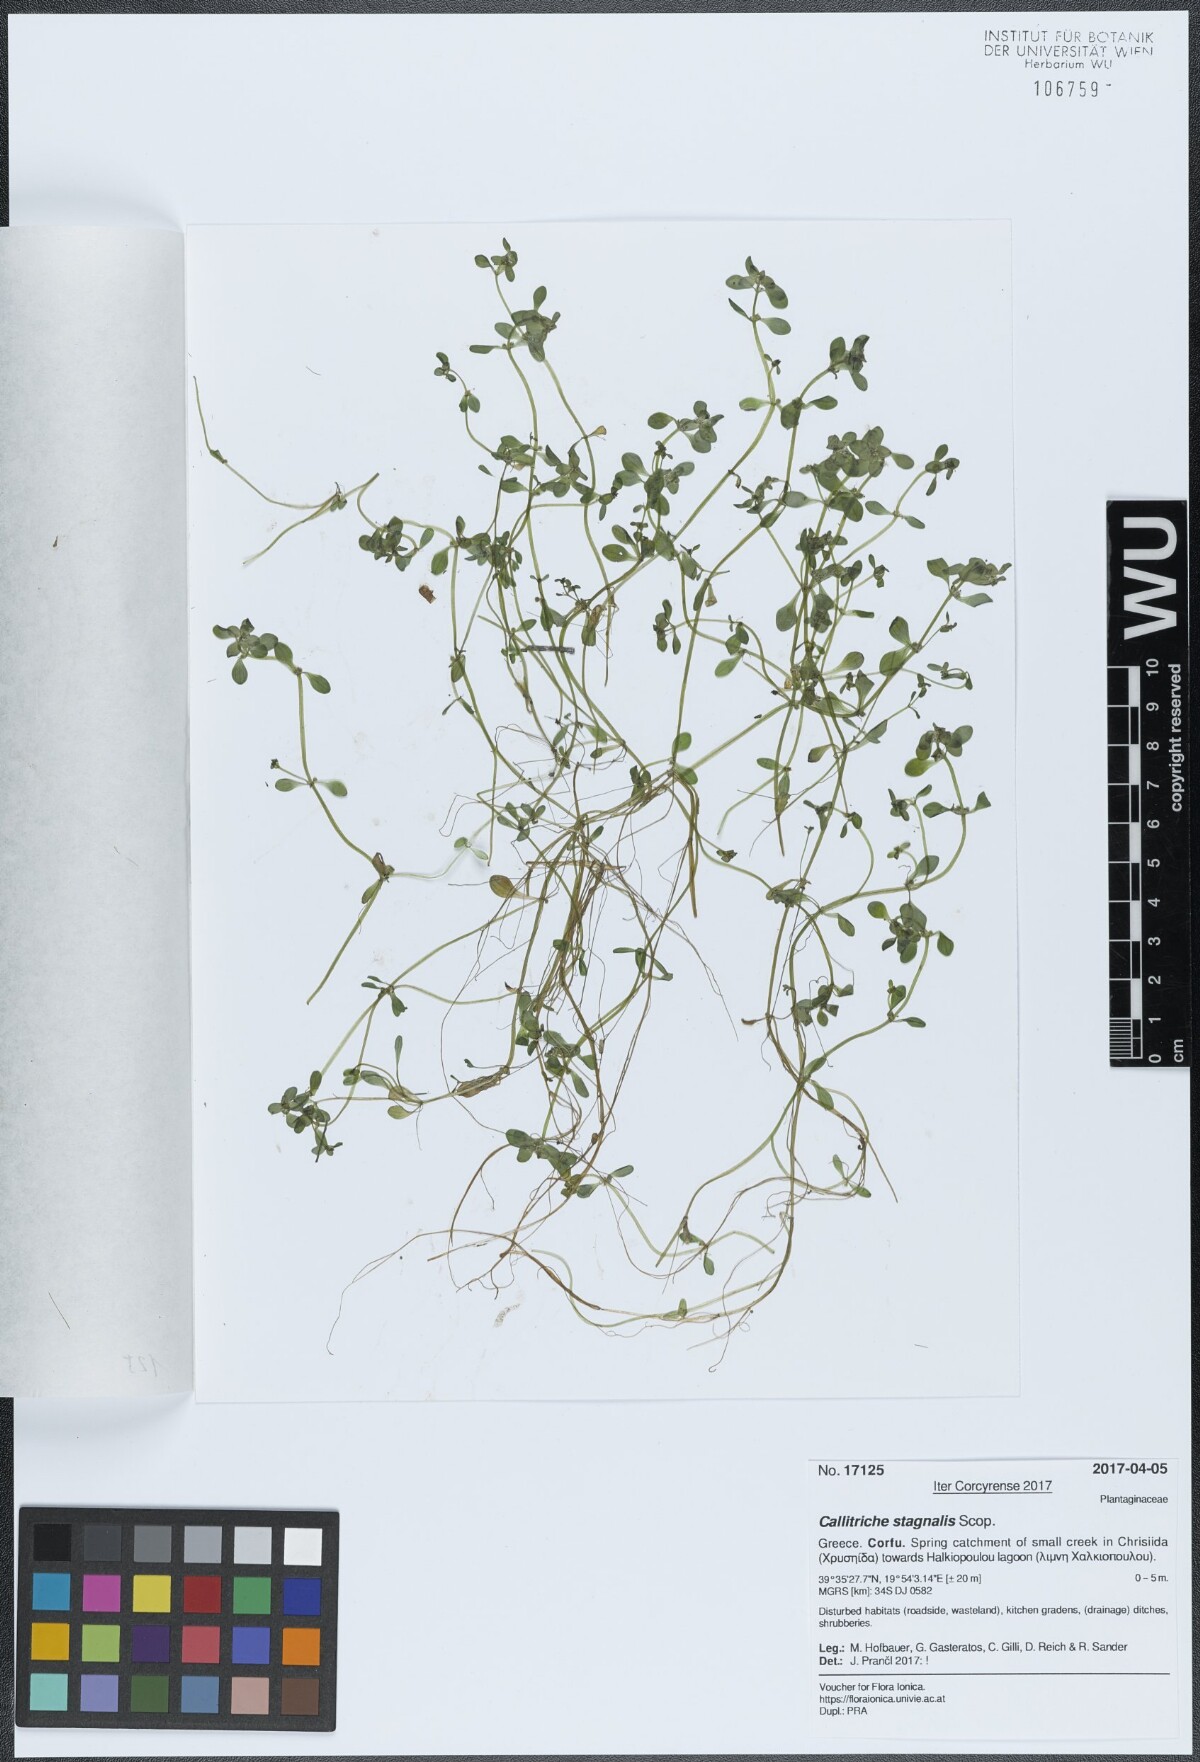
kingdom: Plantae
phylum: Tracheophyta
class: Magnoliopsida
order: Lamiales
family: Plantaginaceae
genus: Callitriche
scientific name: Callitriche stagnalis
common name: Common water-starwort
